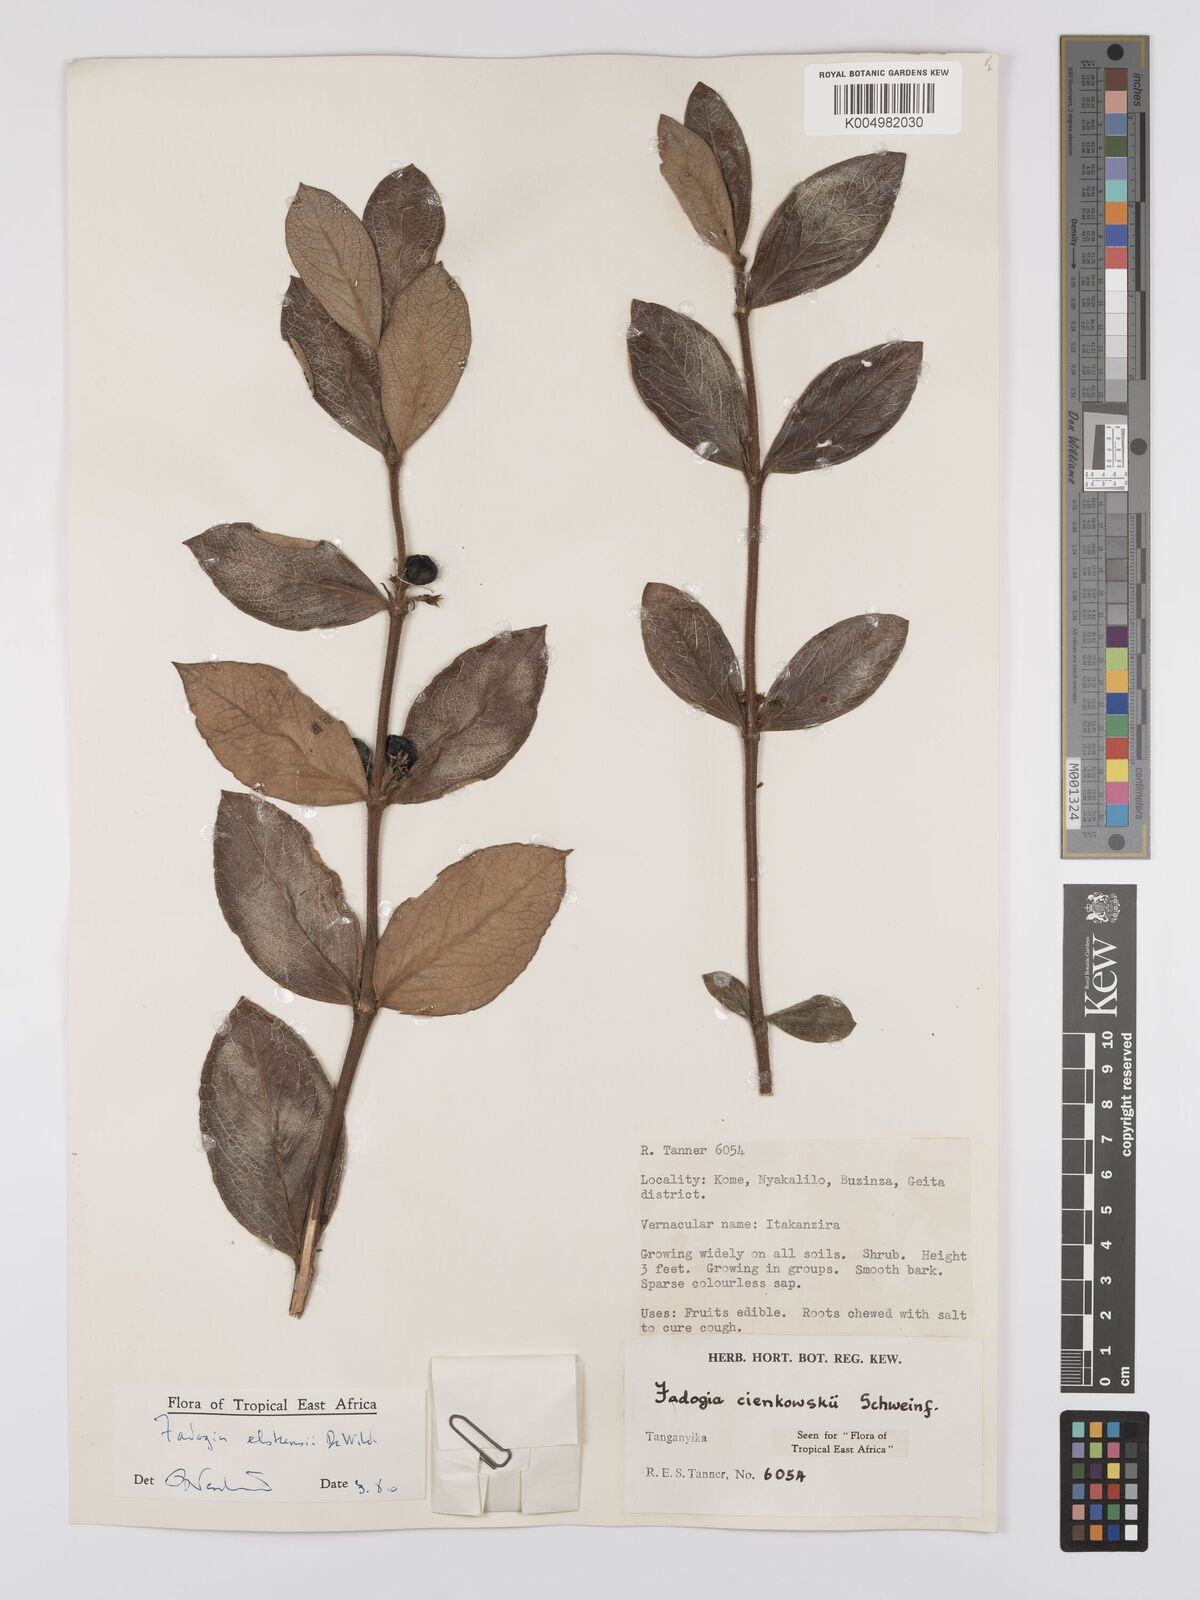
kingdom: Plantae
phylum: Tracheophyta
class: Magnoliopsida
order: Gentianales
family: Rubiaceae
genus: Fadogia
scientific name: Fadogia elskensii
